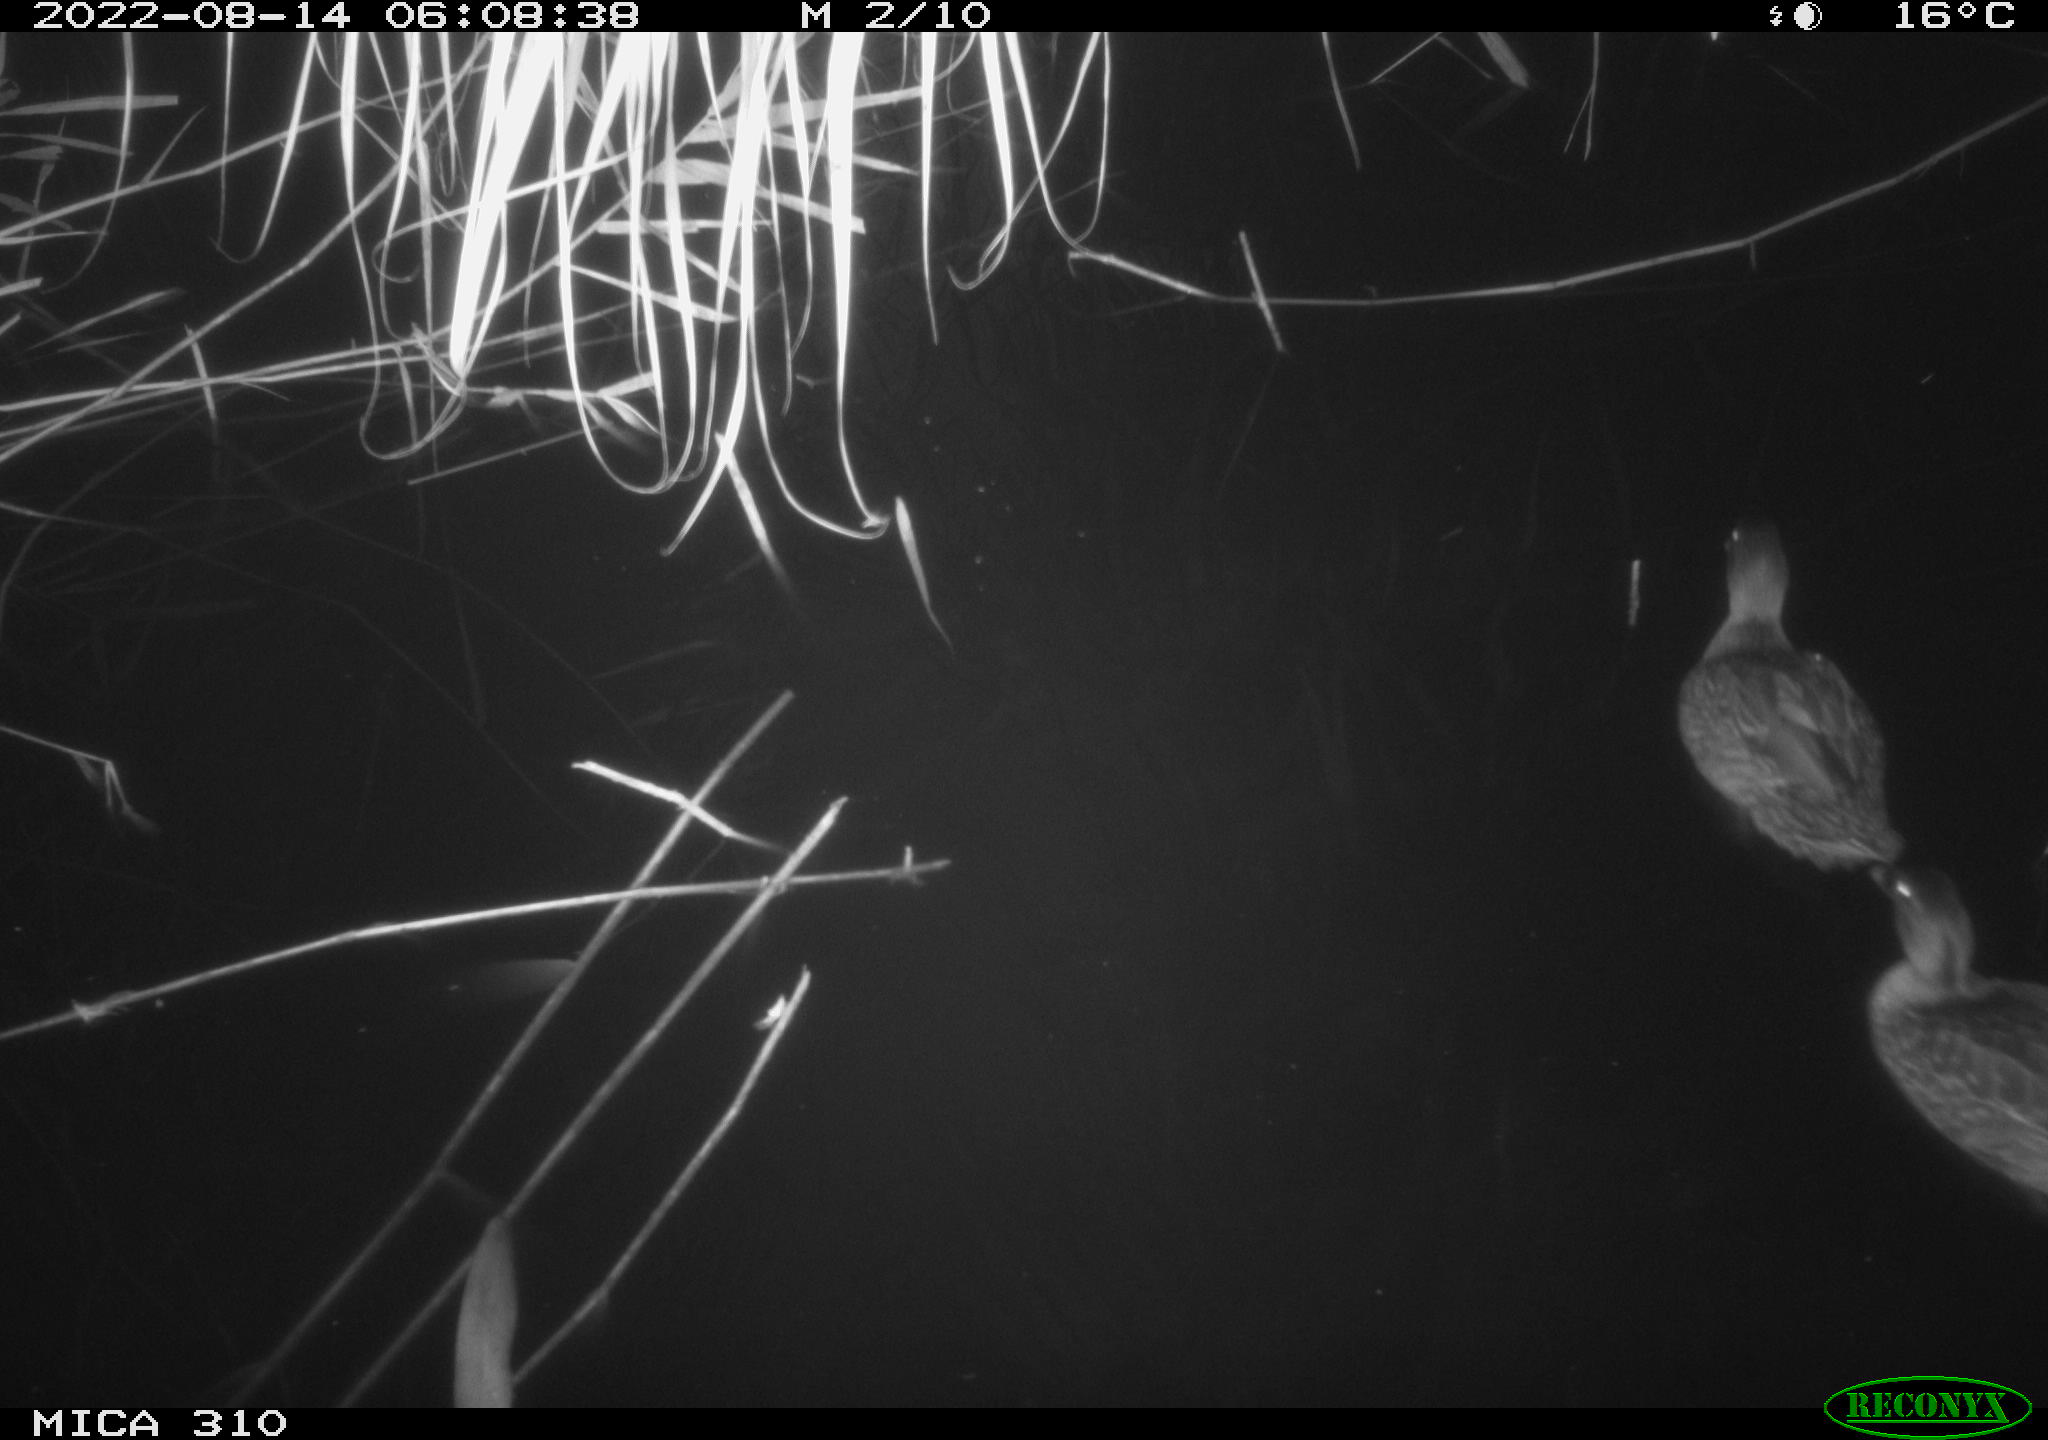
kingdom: Animalia
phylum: Chordata
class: Aves
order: Gruiformes
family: Rallidae
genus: Gallinula
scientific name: Gallinula chloropus
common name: Common moorhen
